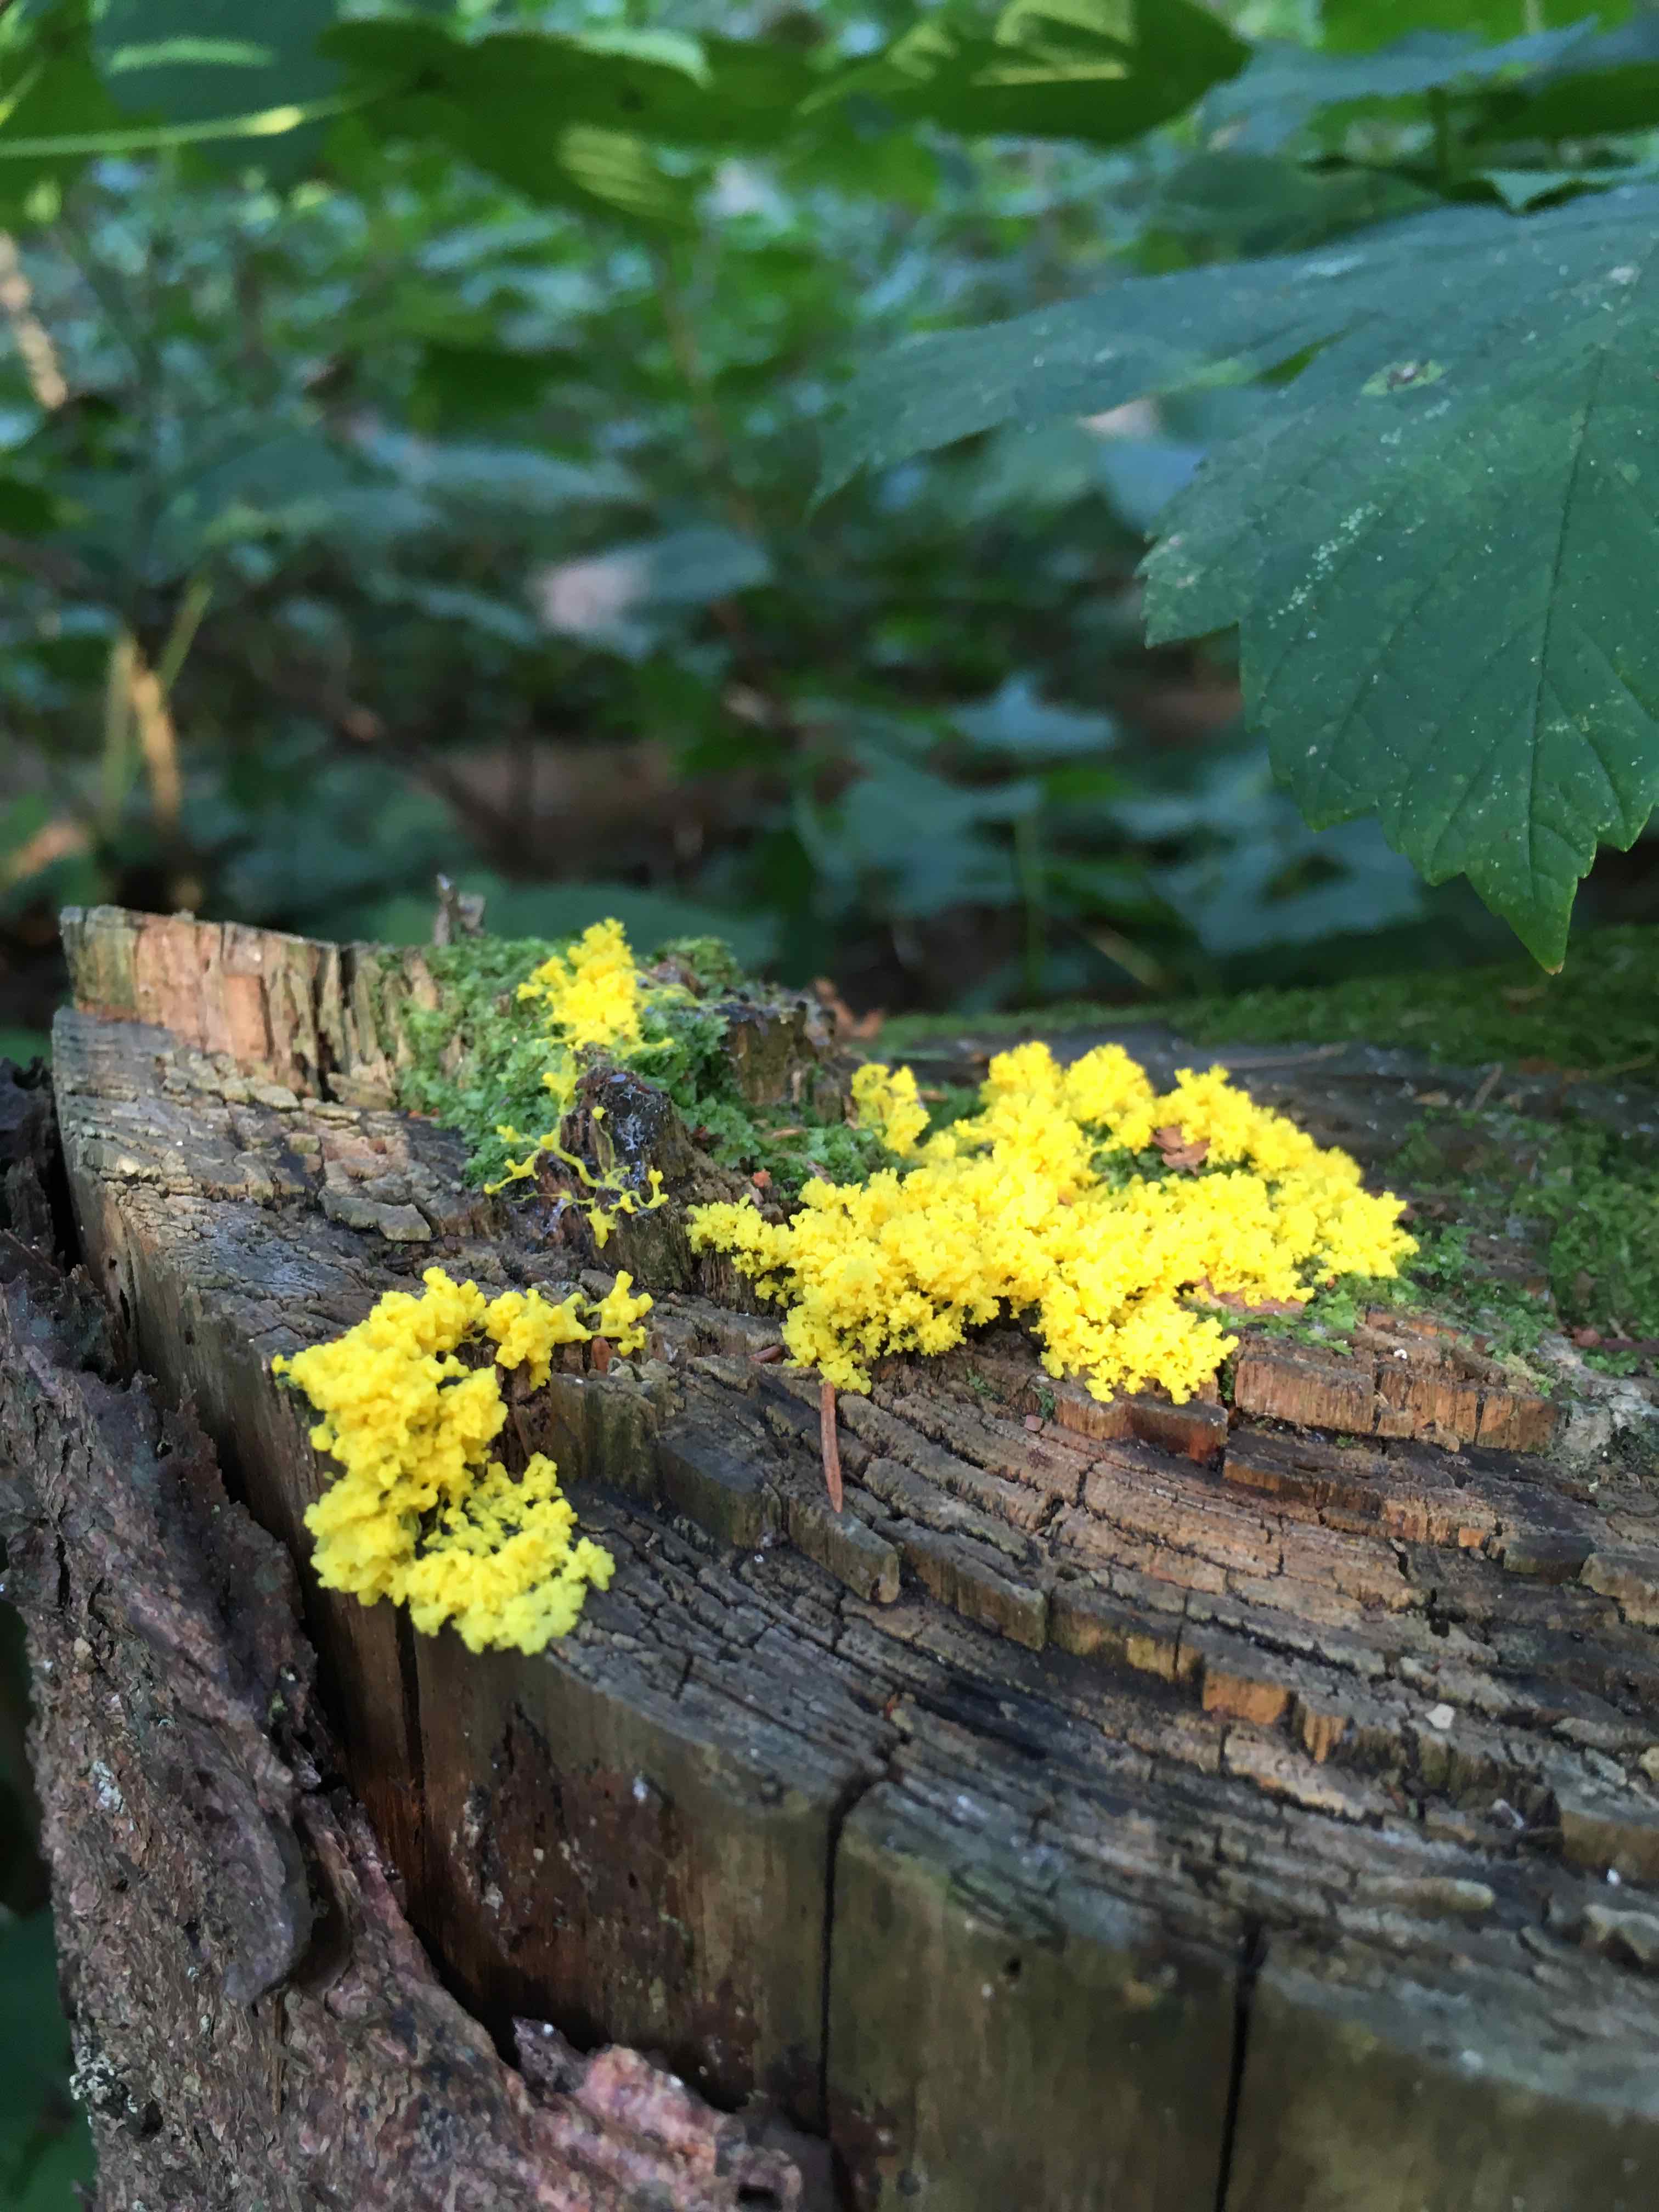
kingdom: Protozoa
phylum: Mycetozoa
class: Myxomycetes
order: Physarales
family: Physaraceae
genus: Fuligo
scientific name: Fuligo septica
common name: gul troldsmør
